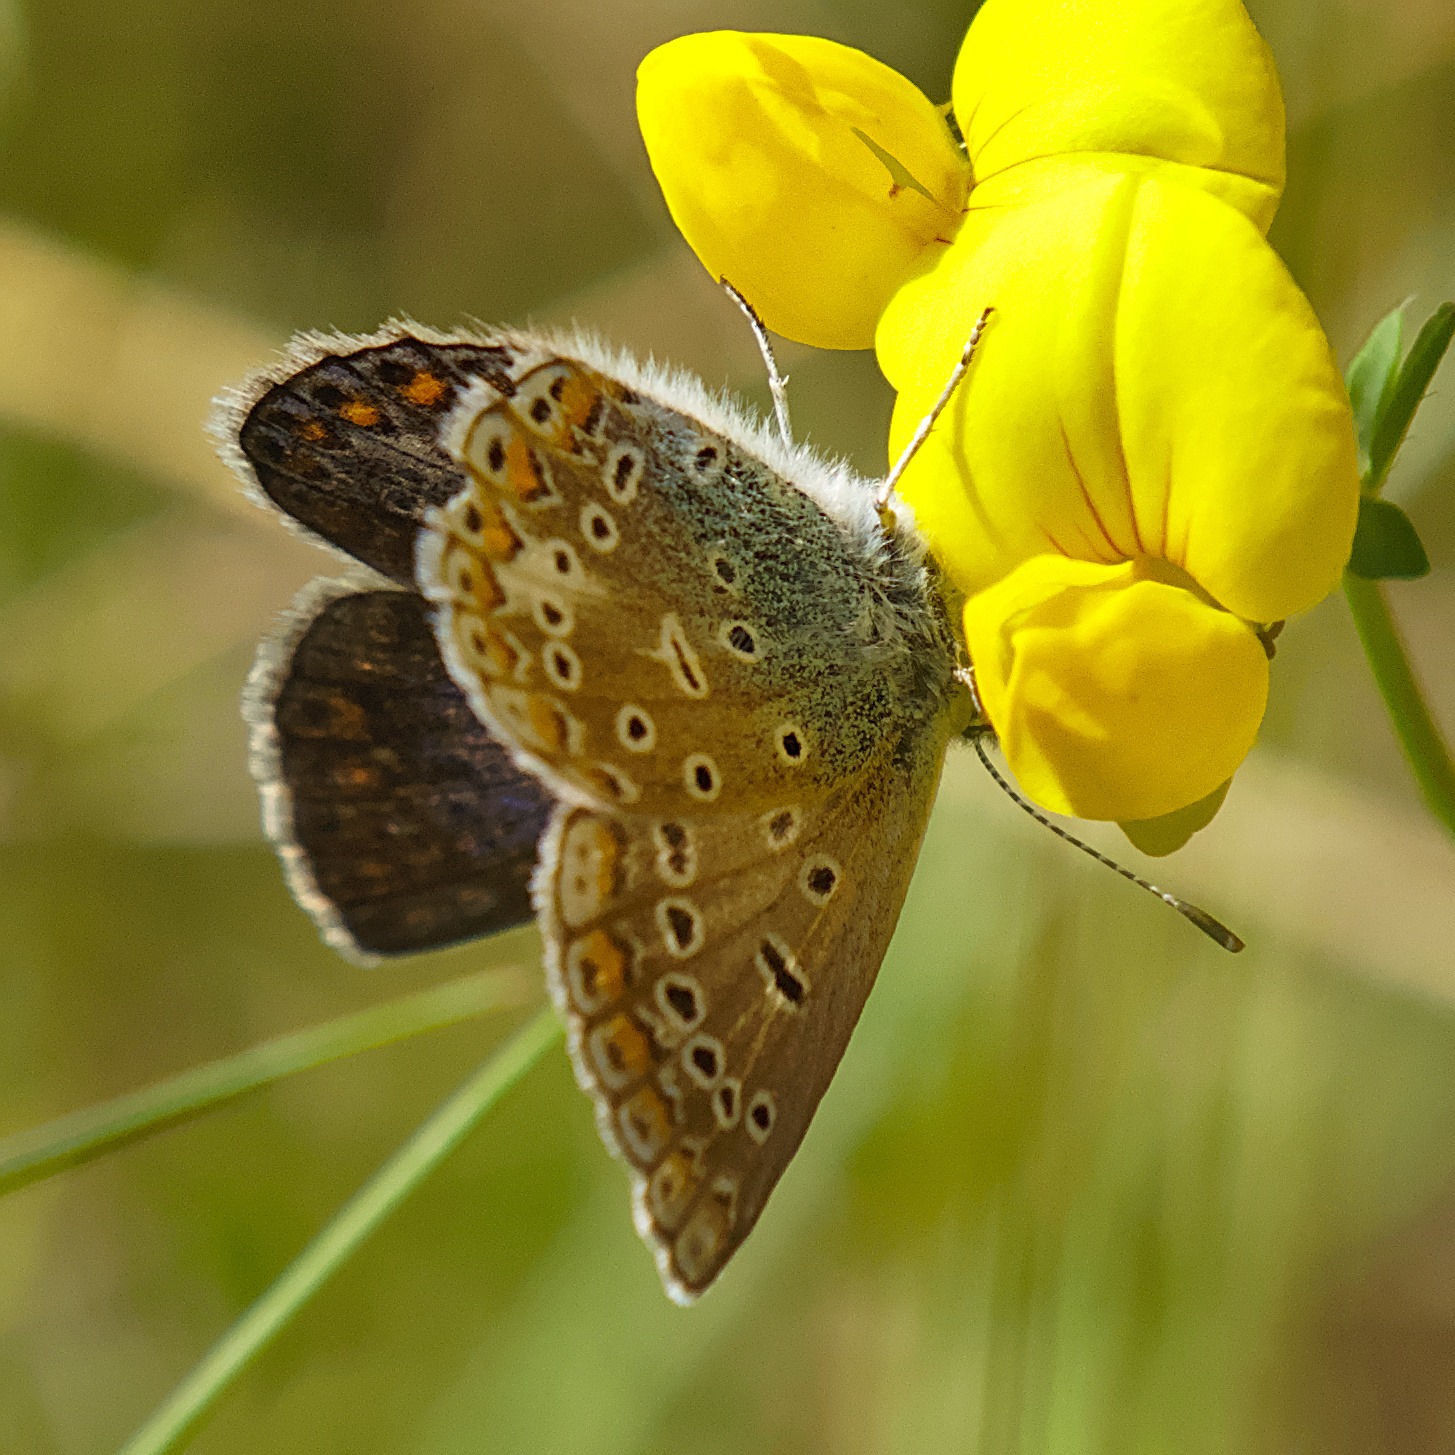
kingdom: Animalia
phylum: Arthropoda
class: Insecta
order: Lepidoptera
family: Lycaenidae
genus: Polyommatus
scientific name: Polyommatus icarus
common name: Almindelig blåfugl
